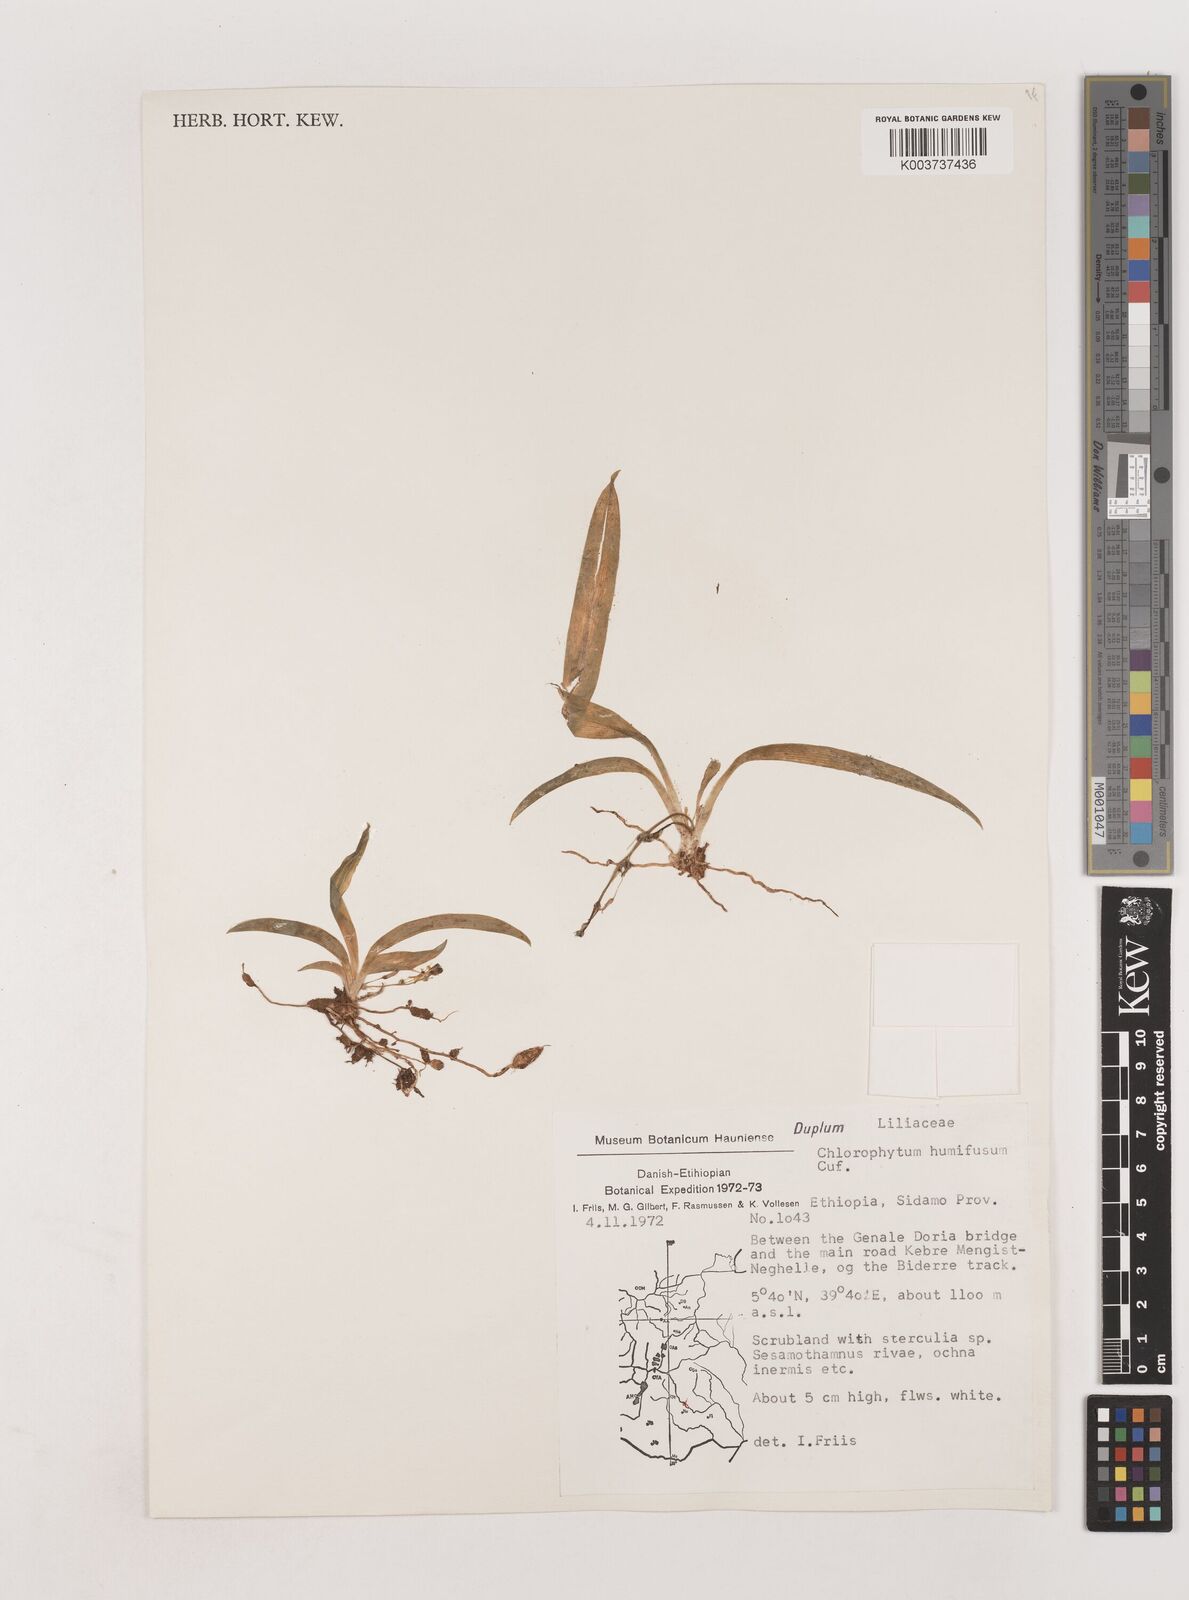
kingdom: Plantae
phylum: Tracheophyta
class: Liliopsida
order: Asparagales
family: Asparagaceae
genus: Chlorophytum
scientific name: Chlorophytum humifusum
